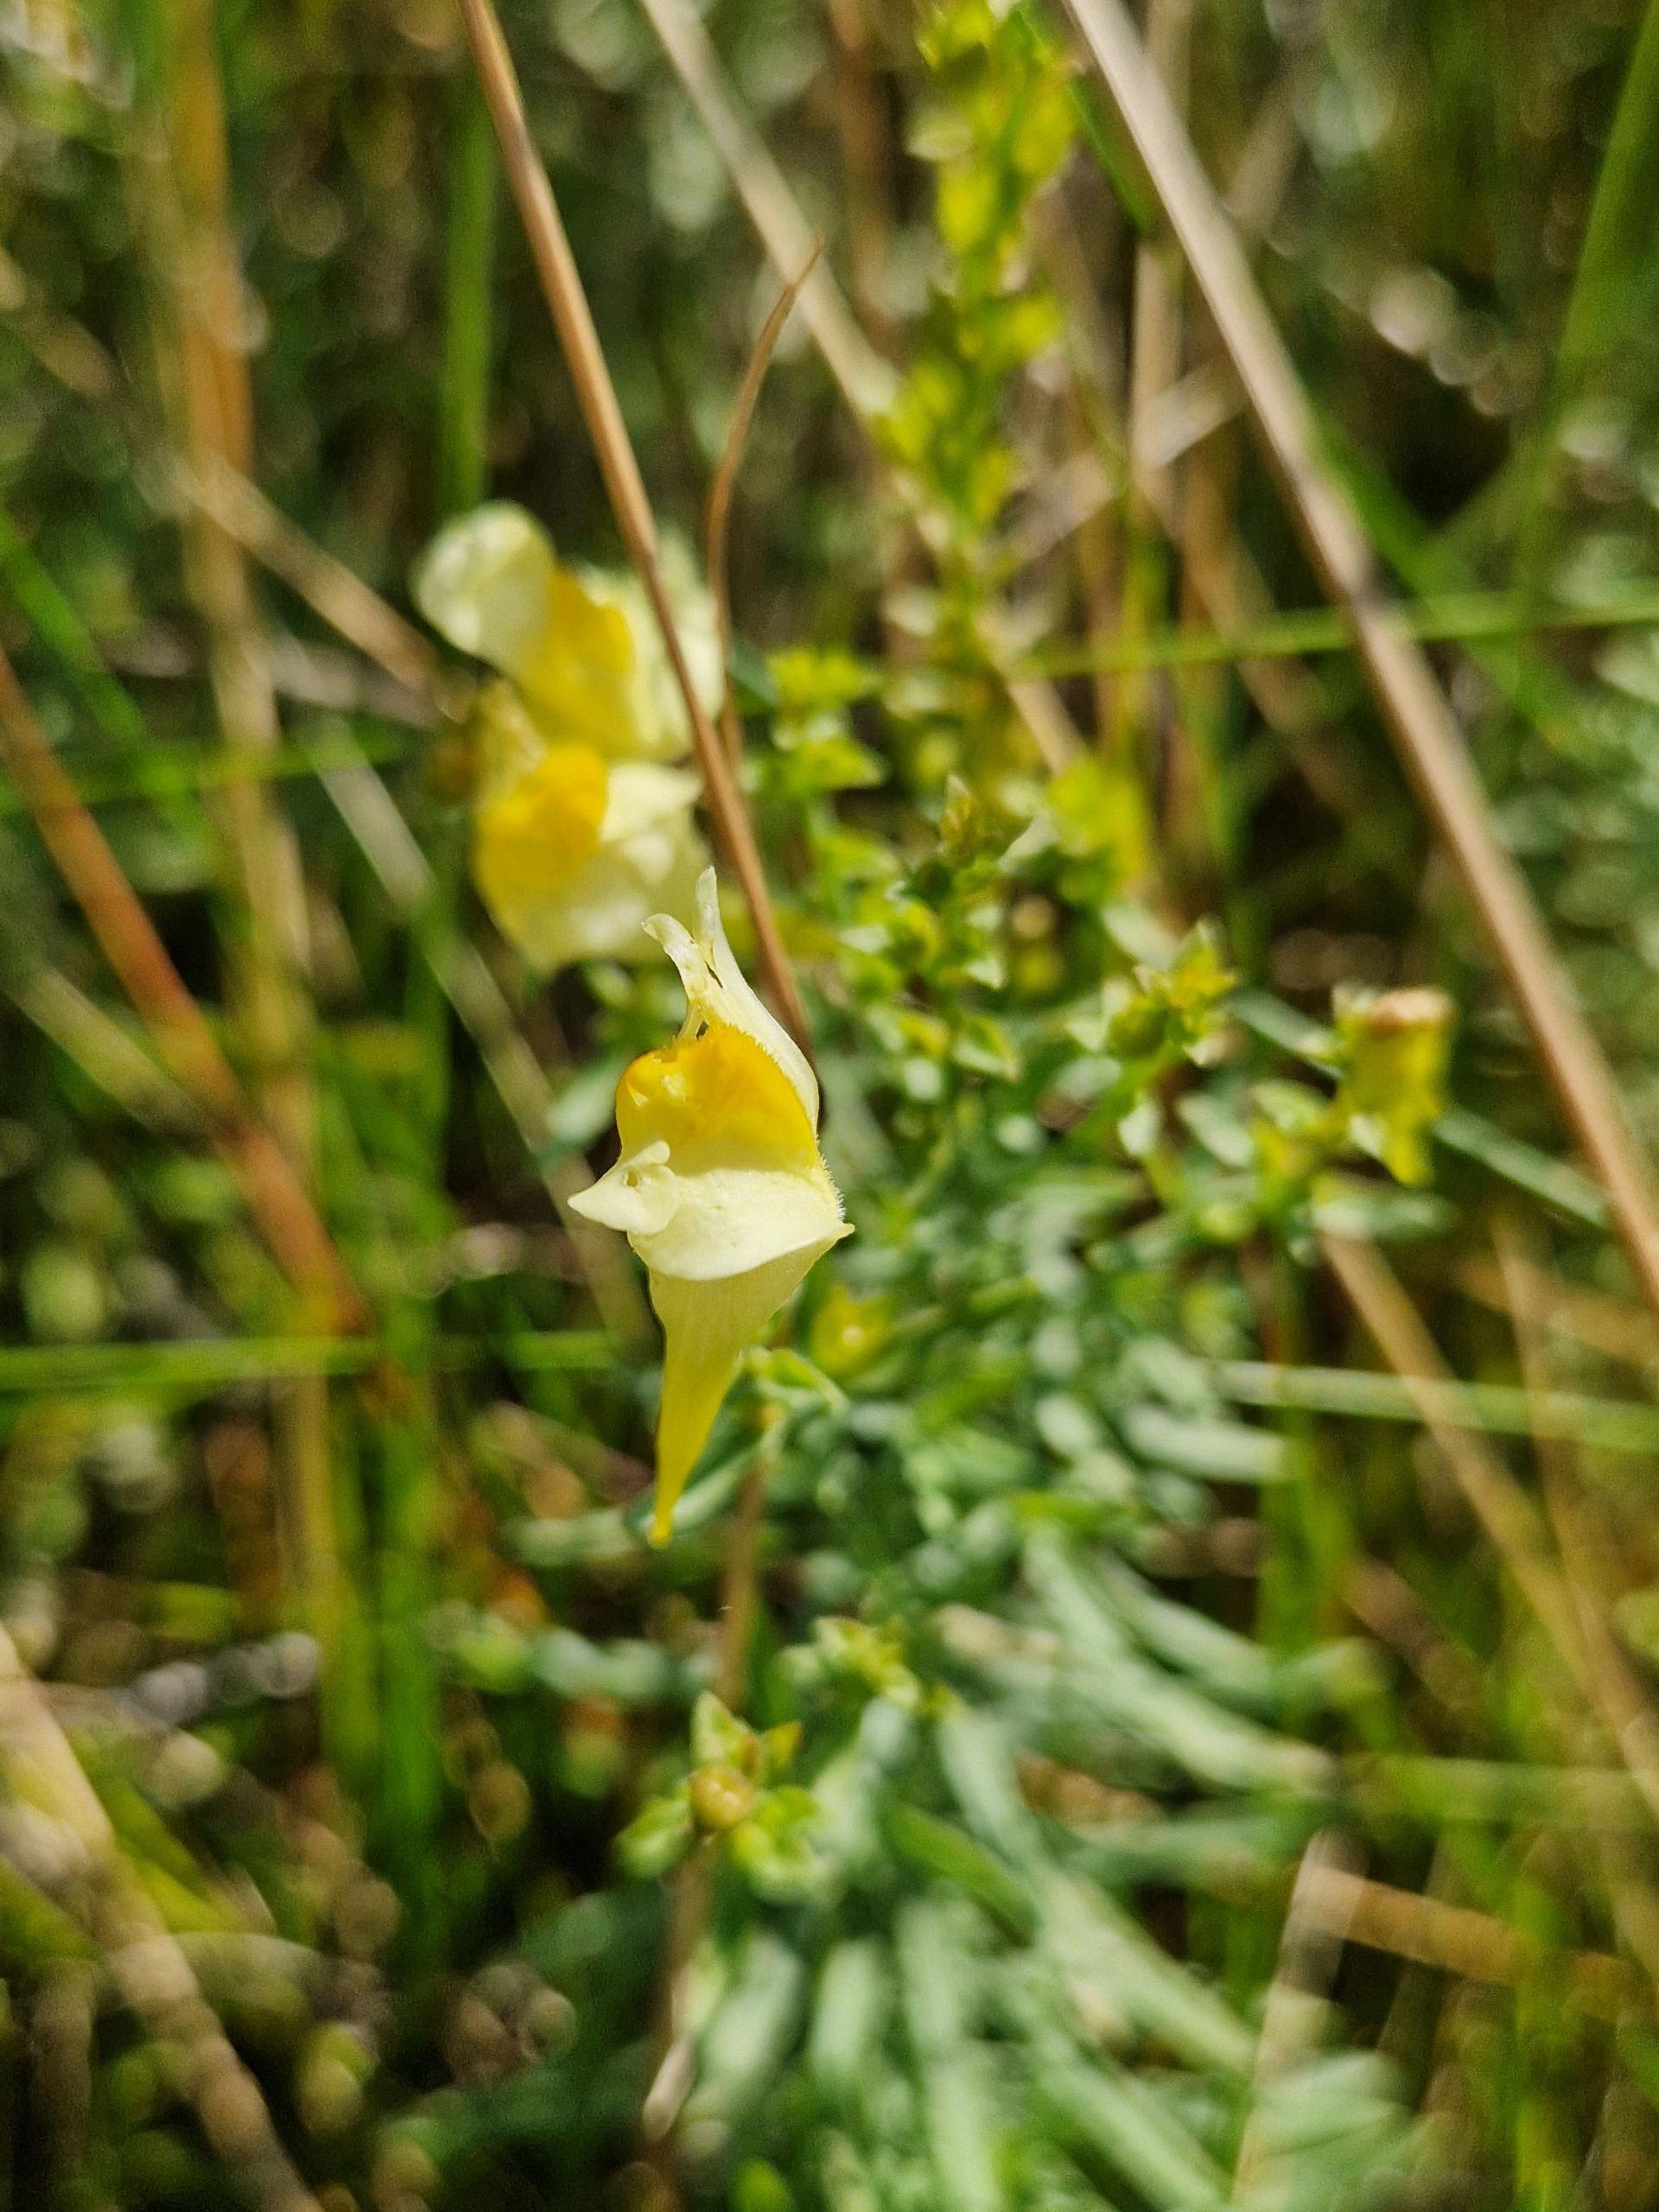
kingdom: Plantae
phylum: Tracheophyta
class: Magnoliopsida
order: Lamiales
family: Plantaginaceae
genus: Linaria
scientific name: Linaria vulgaris
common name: Almindelig torskemund
